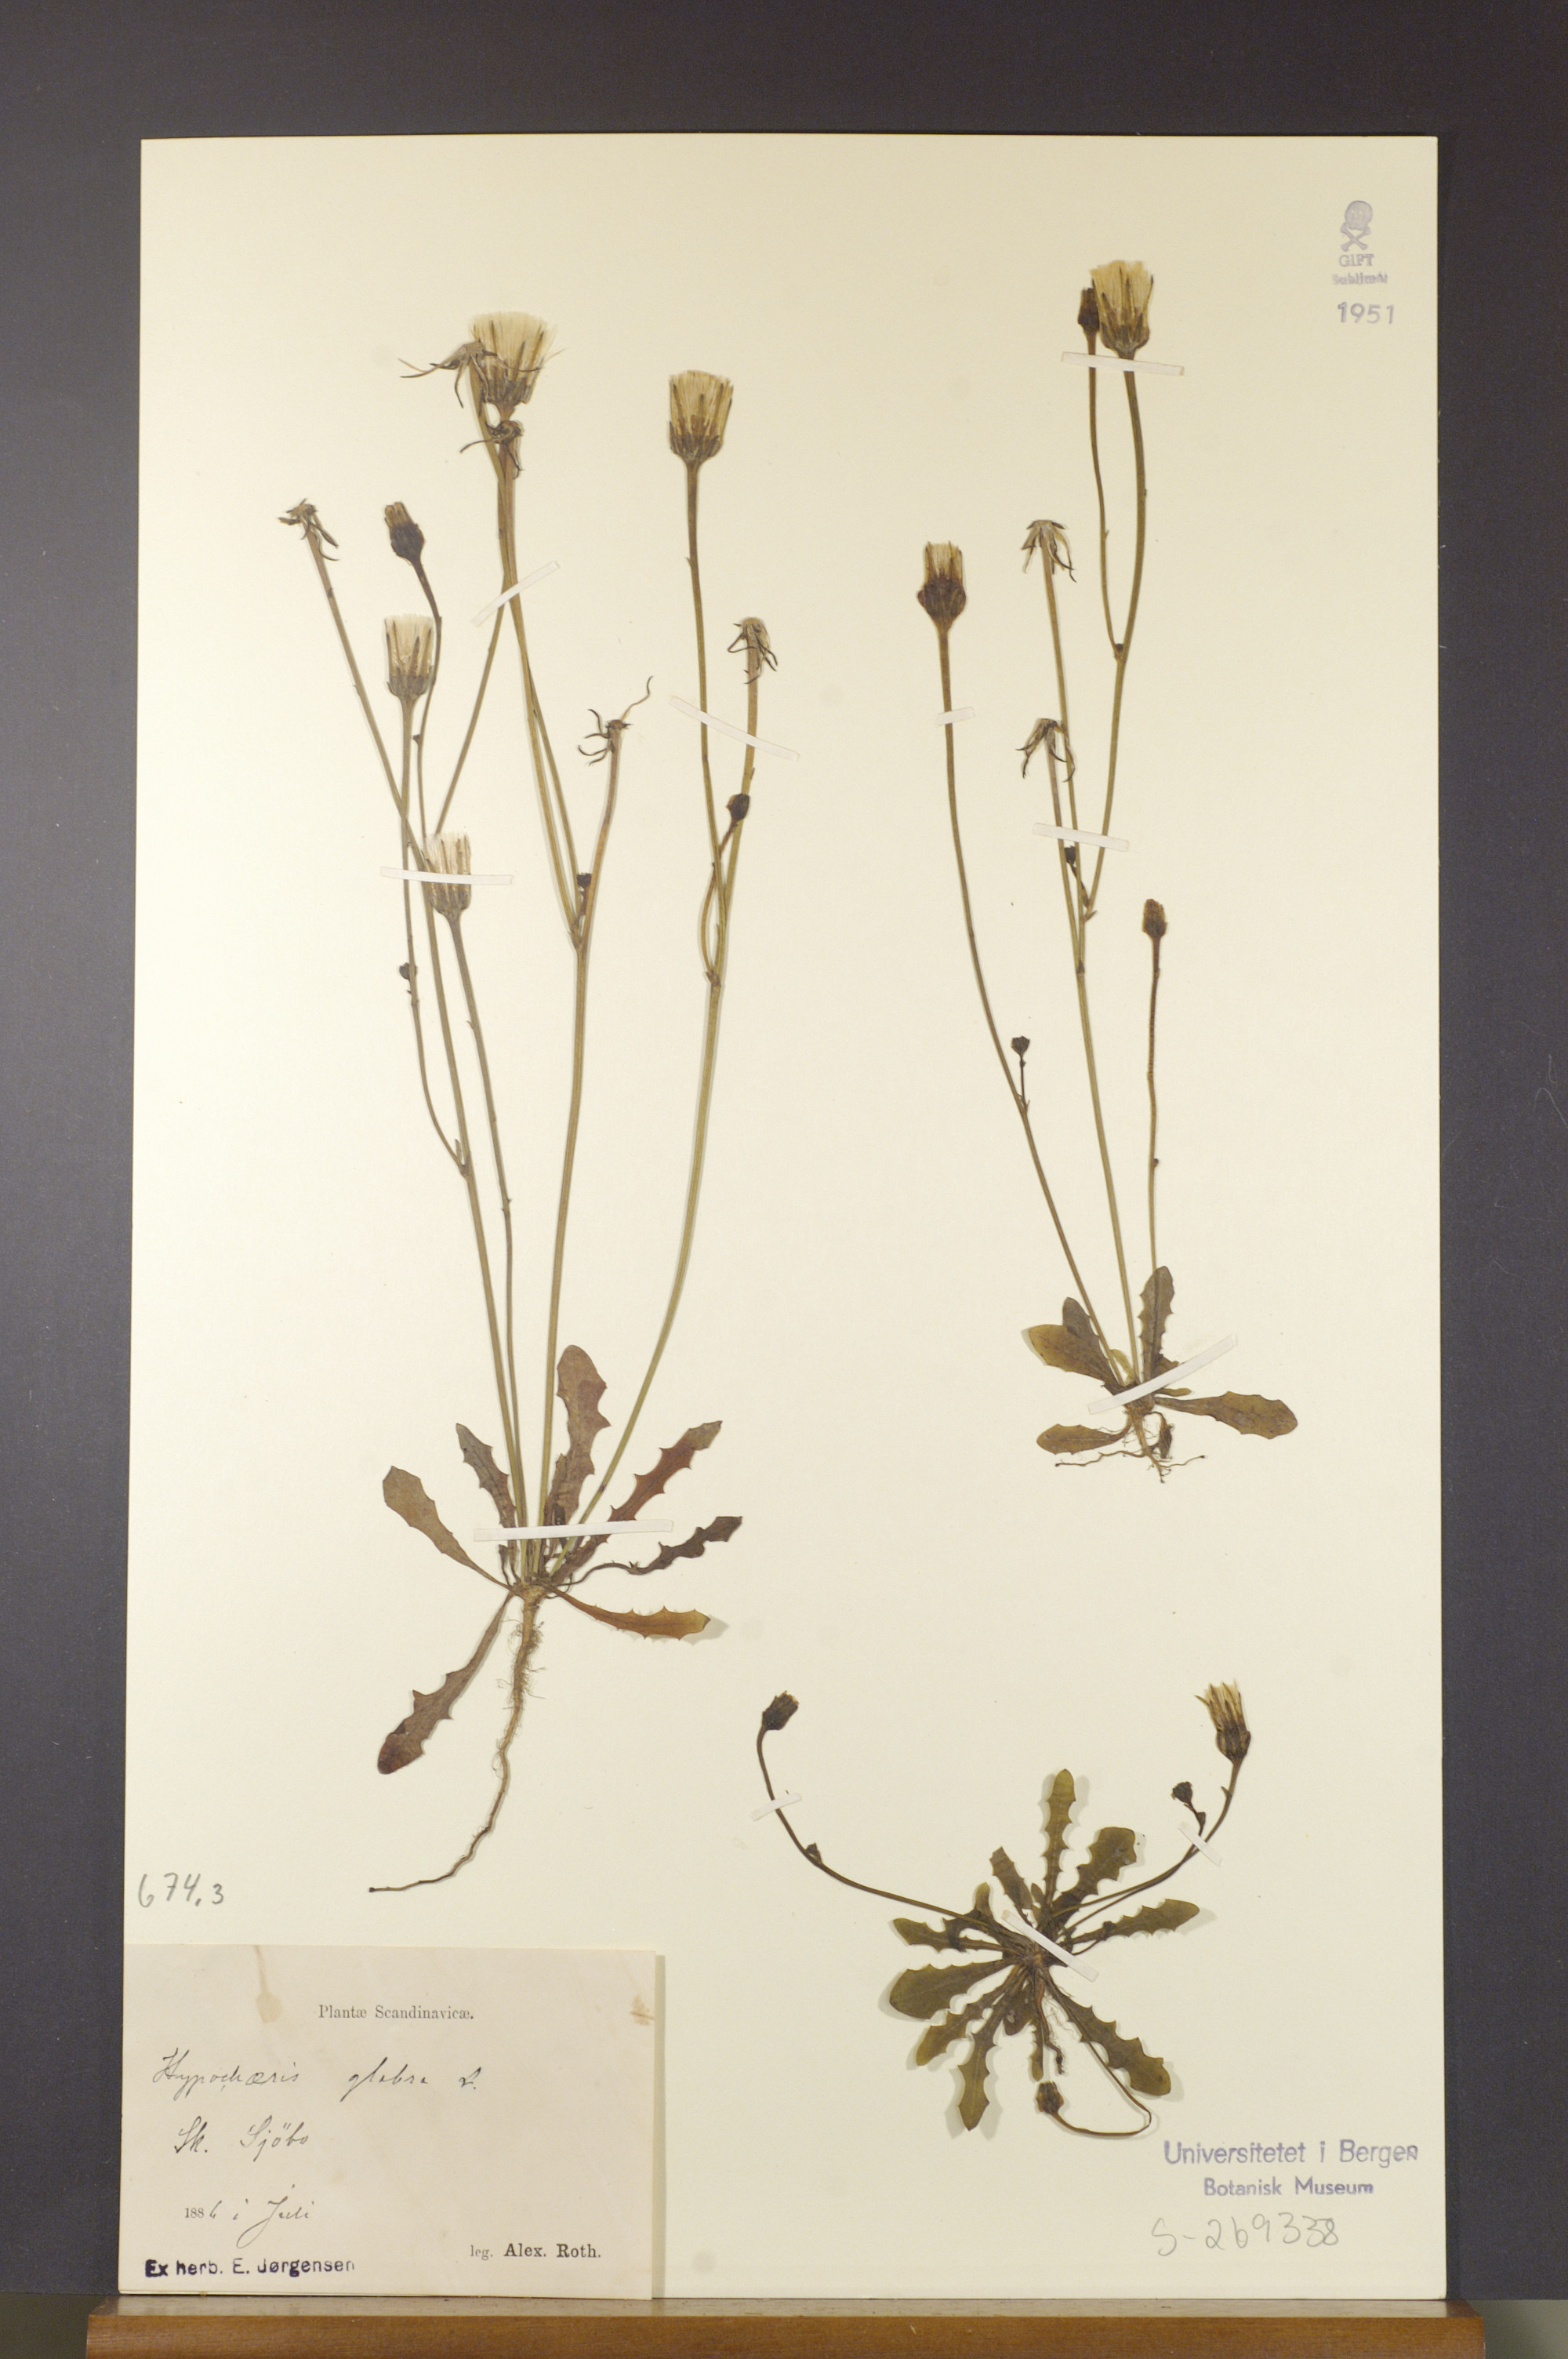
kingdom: Plantae
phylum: Tracheophyta
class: Magnoliopsida
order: Asterales
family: Asteraceae
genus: Hypochaeris
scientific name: Hypochaeris glabra
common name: Smooth catsear
